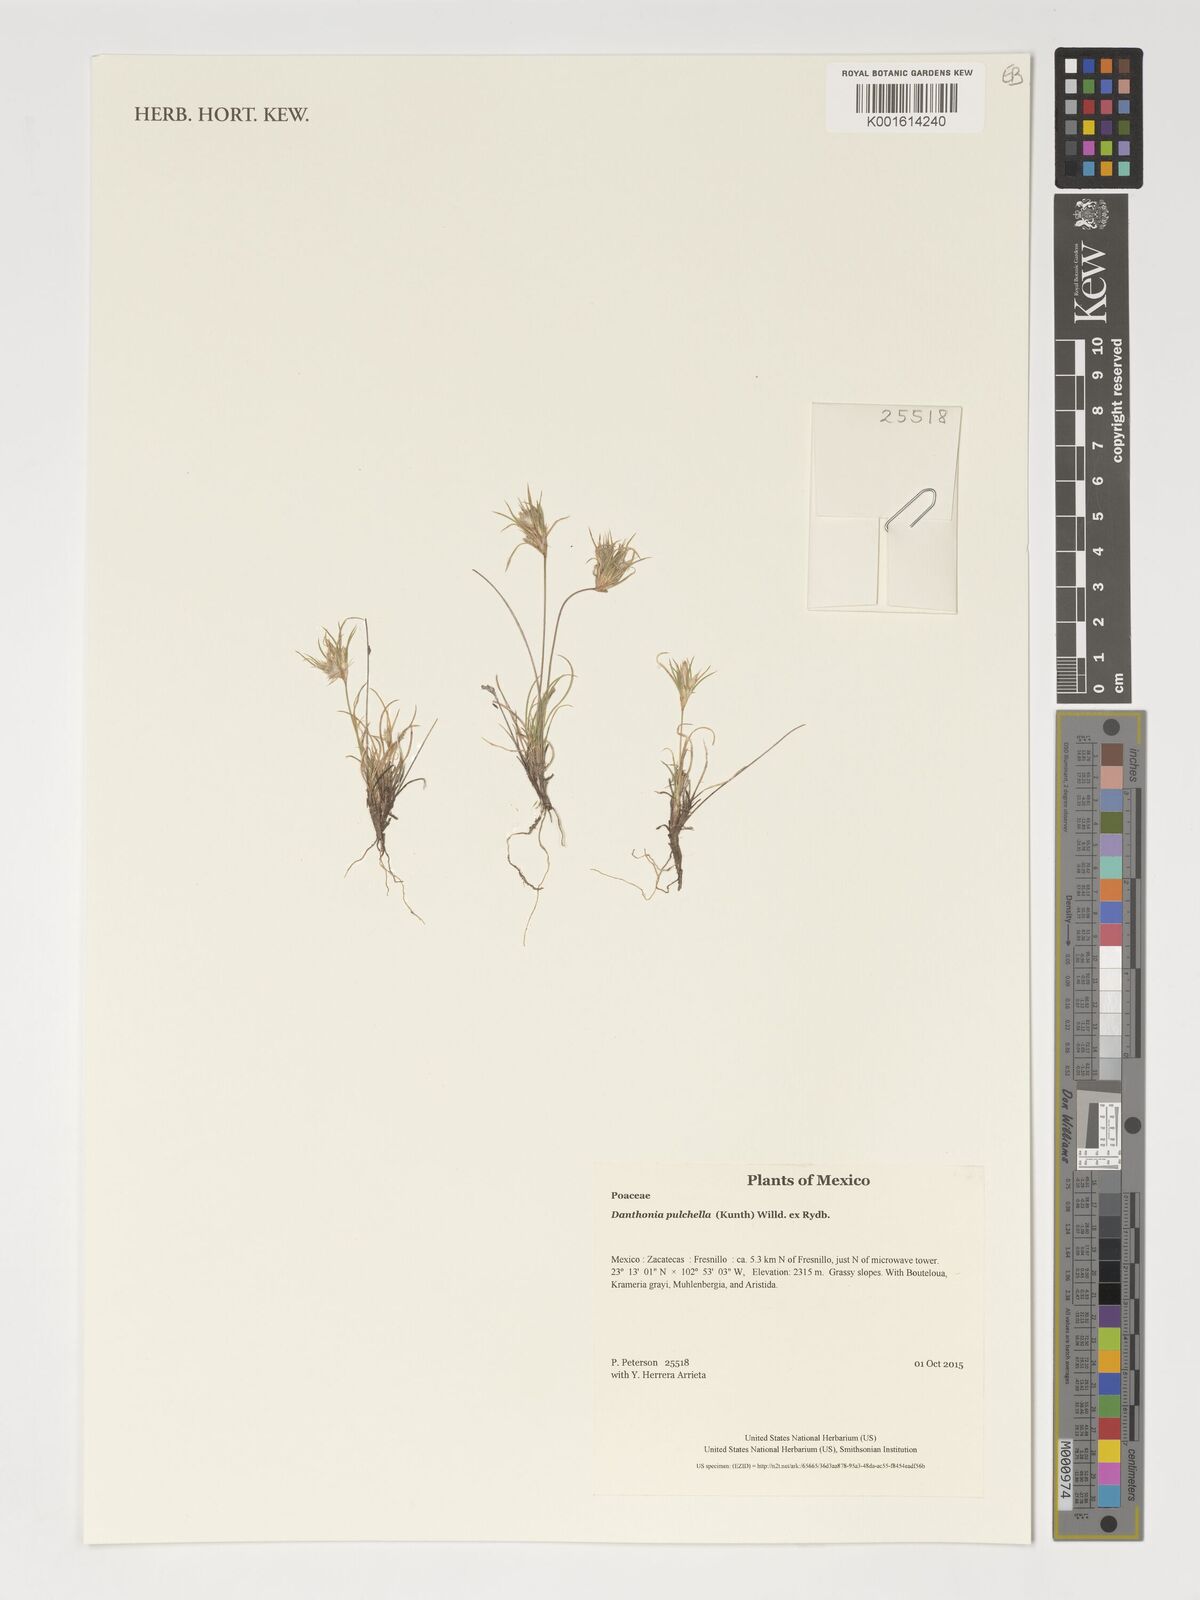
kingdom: Plantae
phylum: Tracheophyta
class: Liliopsida
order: Poales
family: Poaceae
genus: Munroa
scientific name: Munroa pulchella
